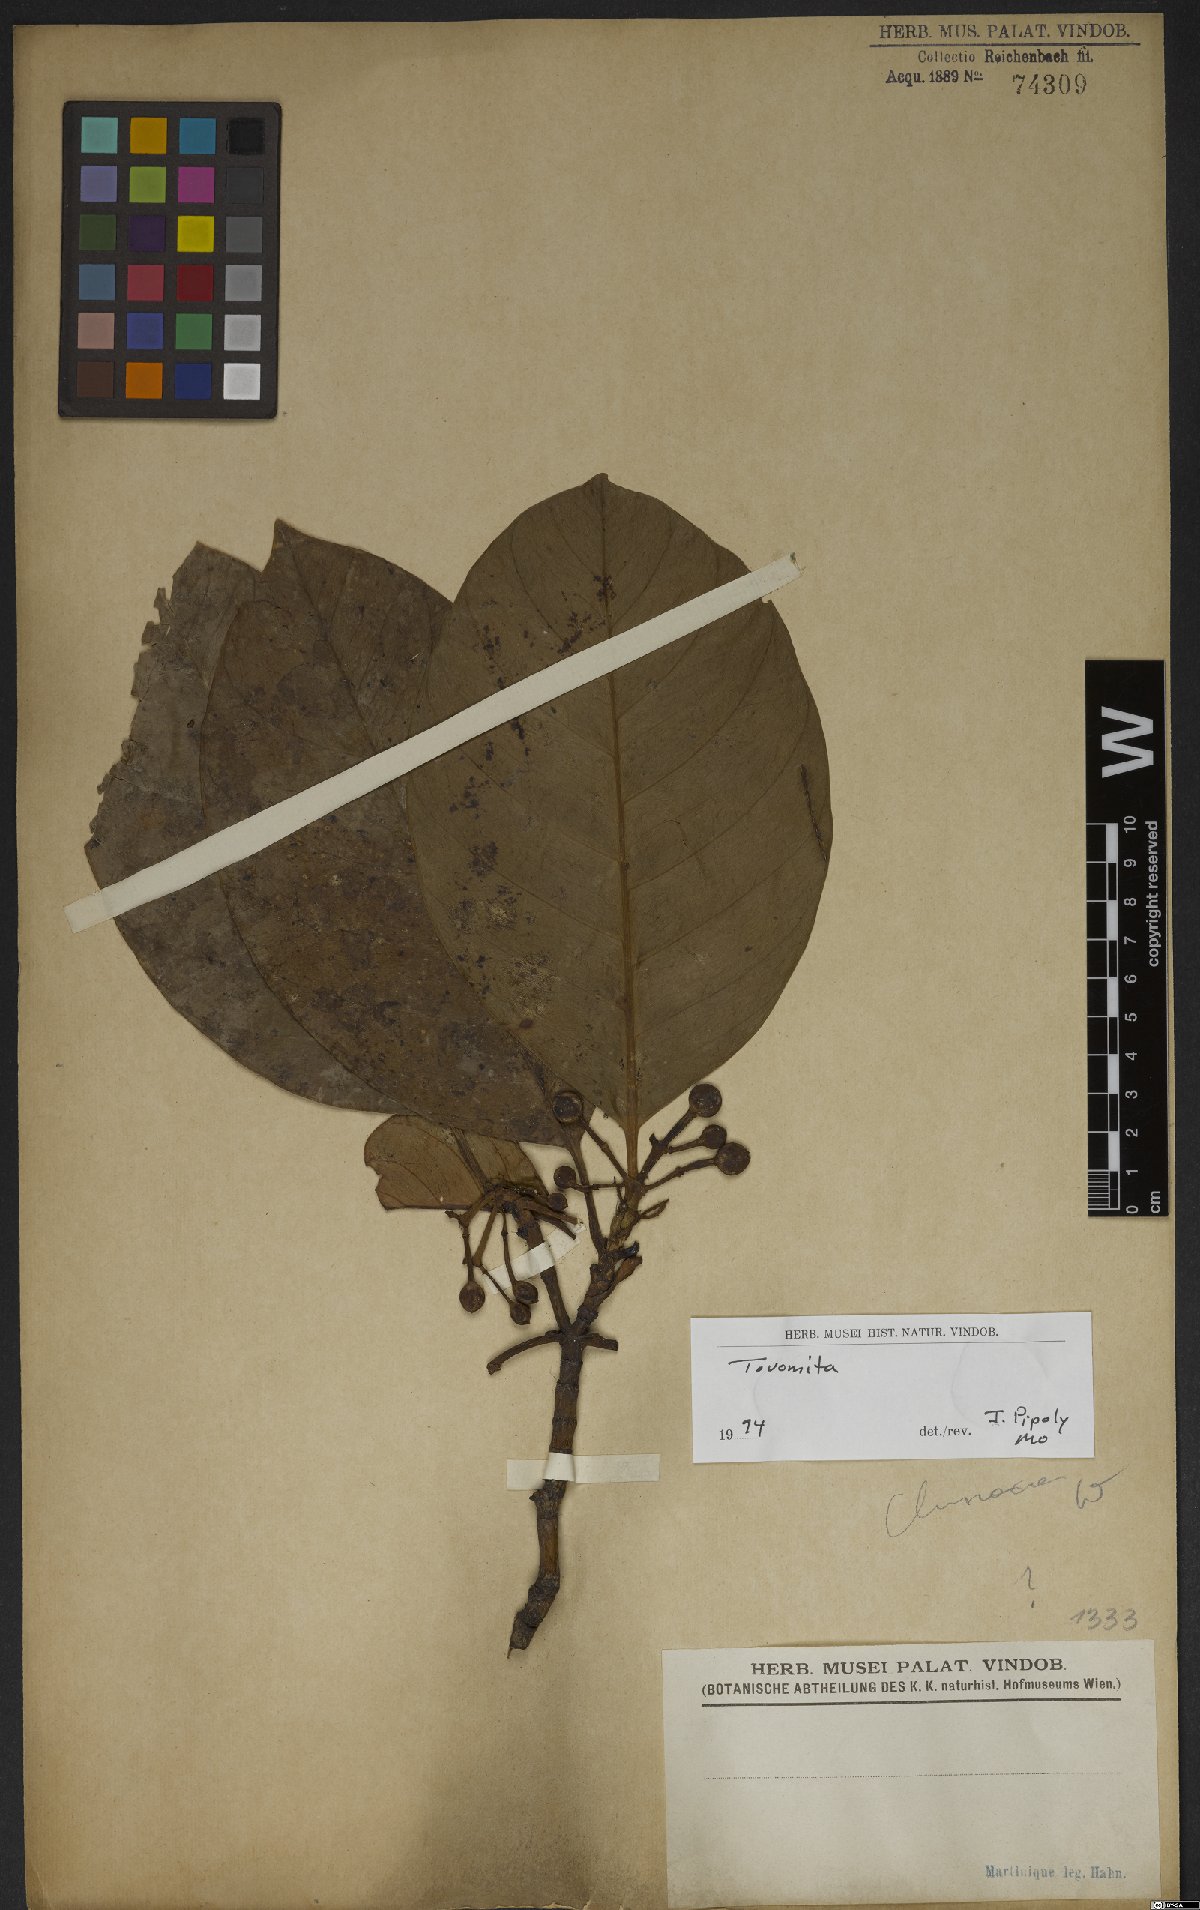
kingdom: Plantae
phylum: Tracheophyta
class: Magnoliopsida
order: Malpighiales
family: Clusiaceae
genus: Tovomita
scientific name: Tovomita
